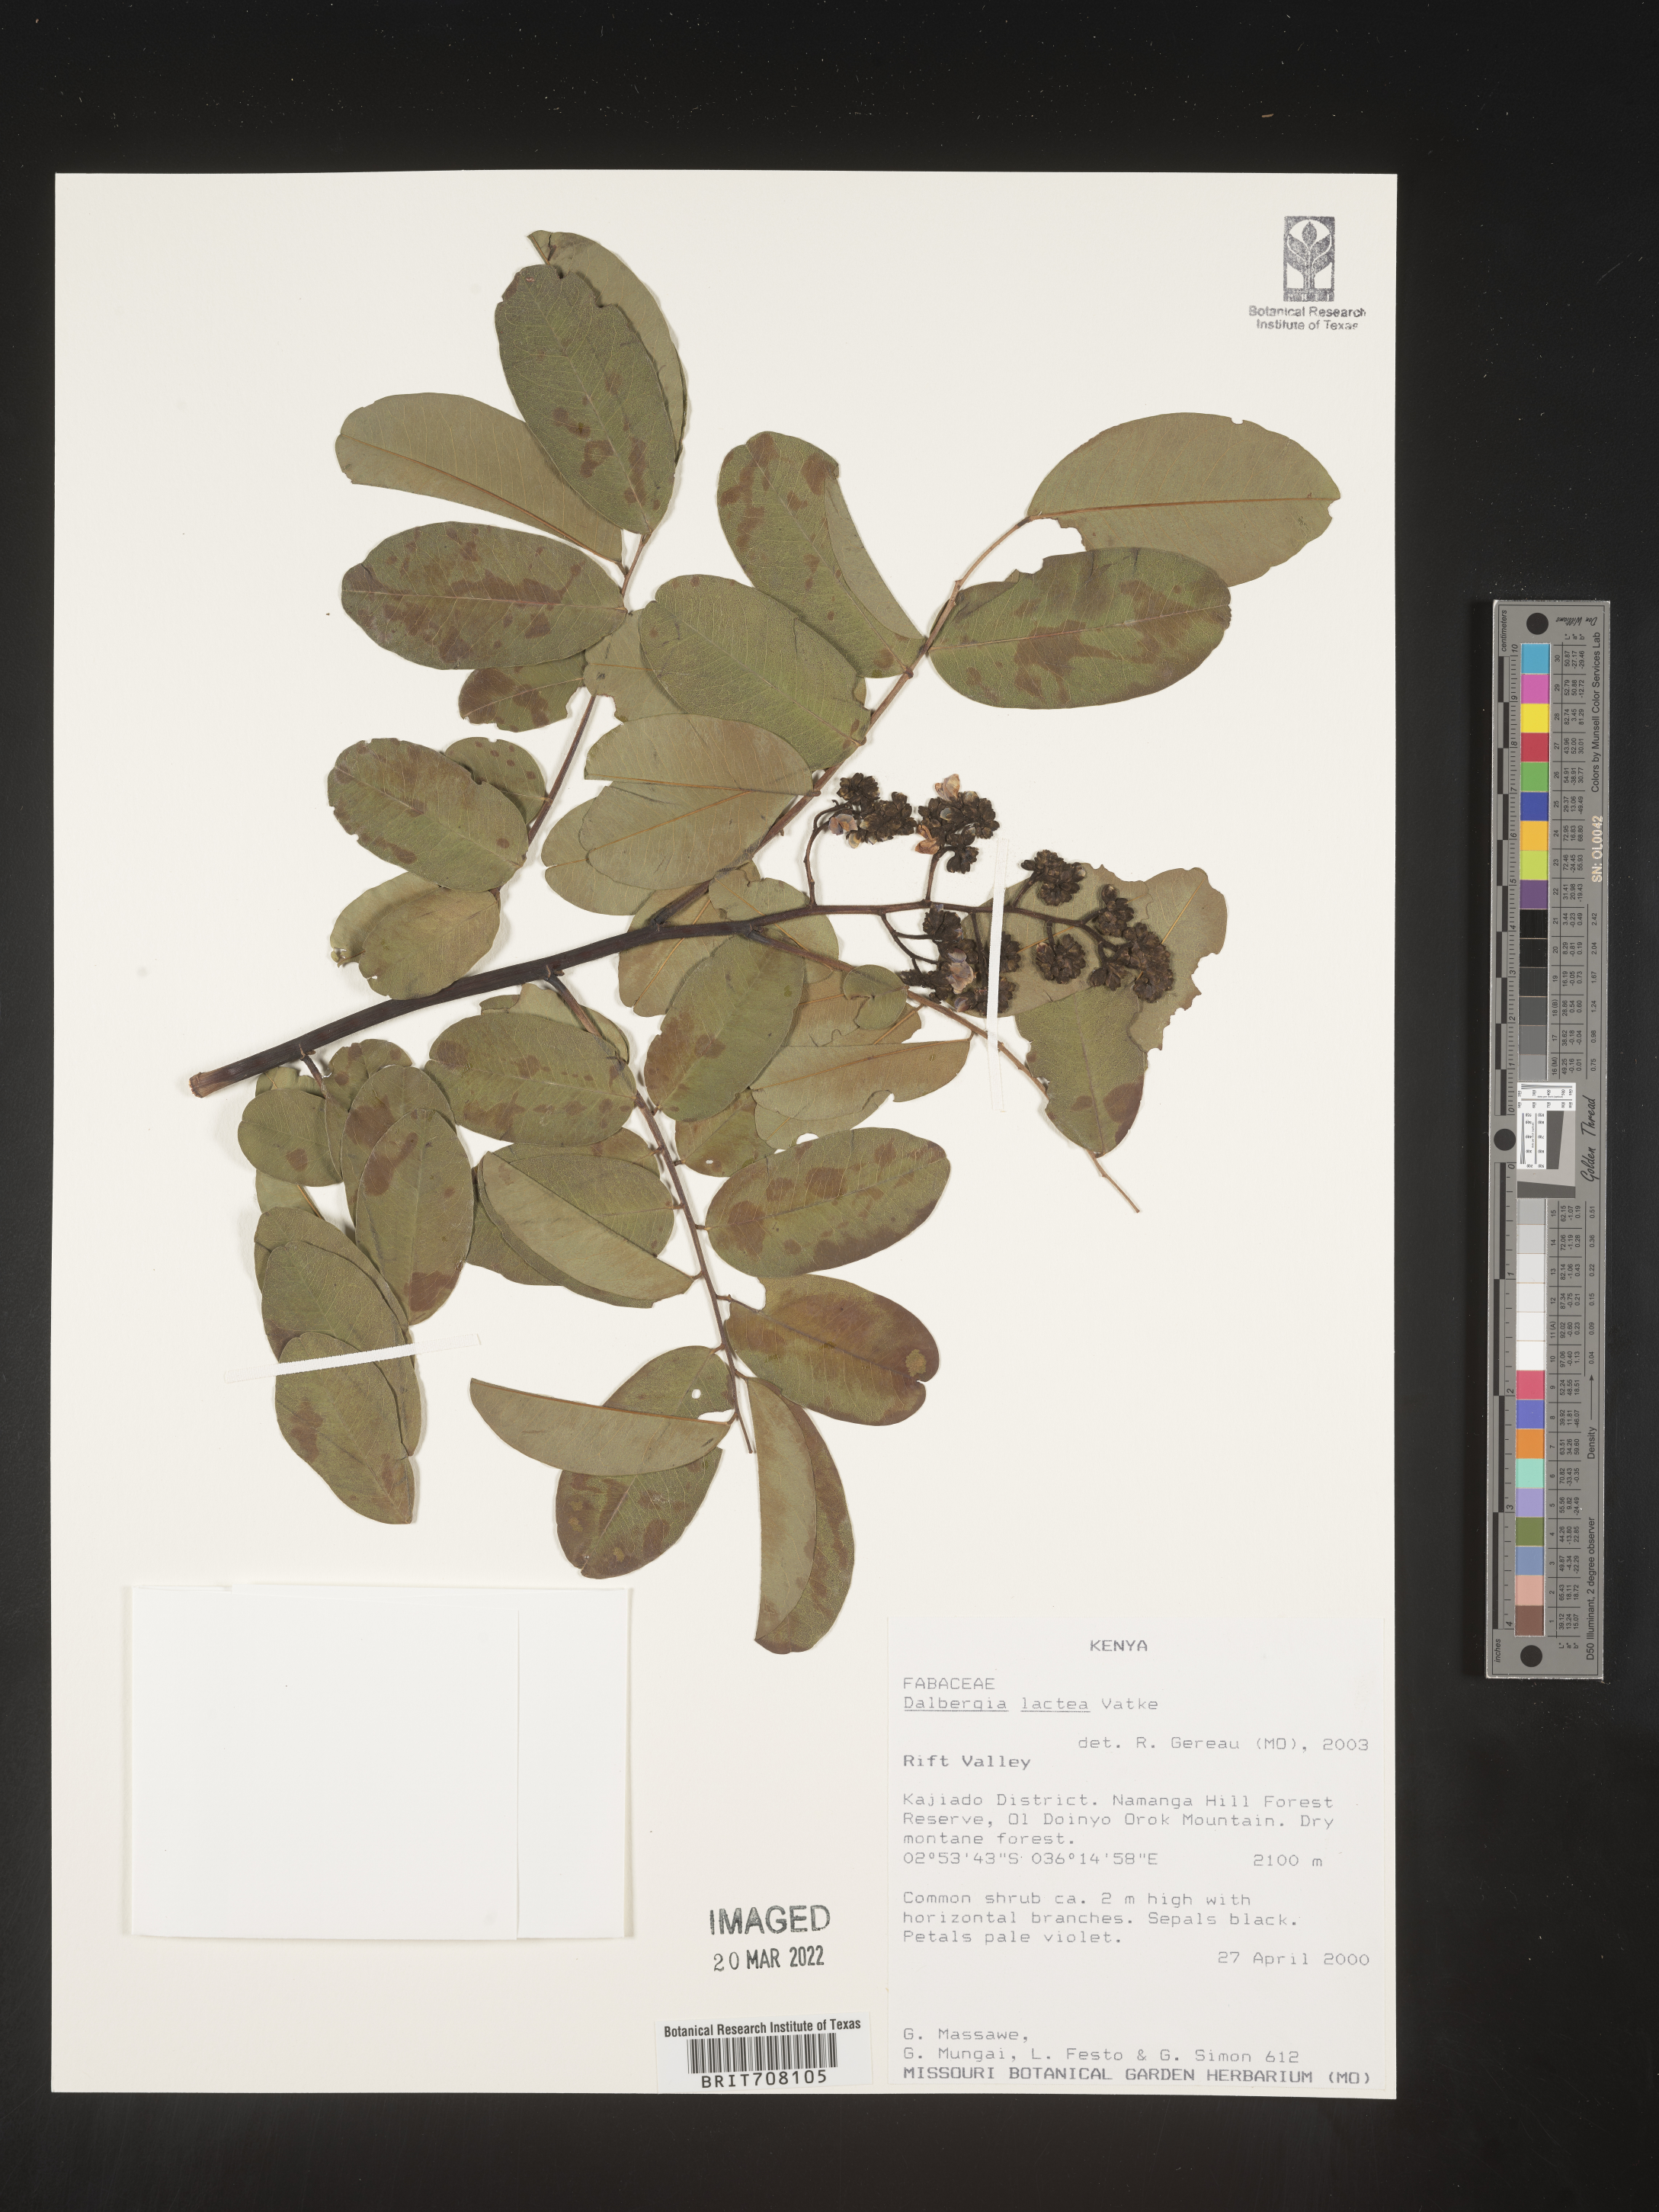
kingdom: Plantae
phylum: Tracheophyta
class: Magnoliopsida
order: Fabales
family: Fabaceae
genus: Dalbergia
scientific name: Dalbergia
